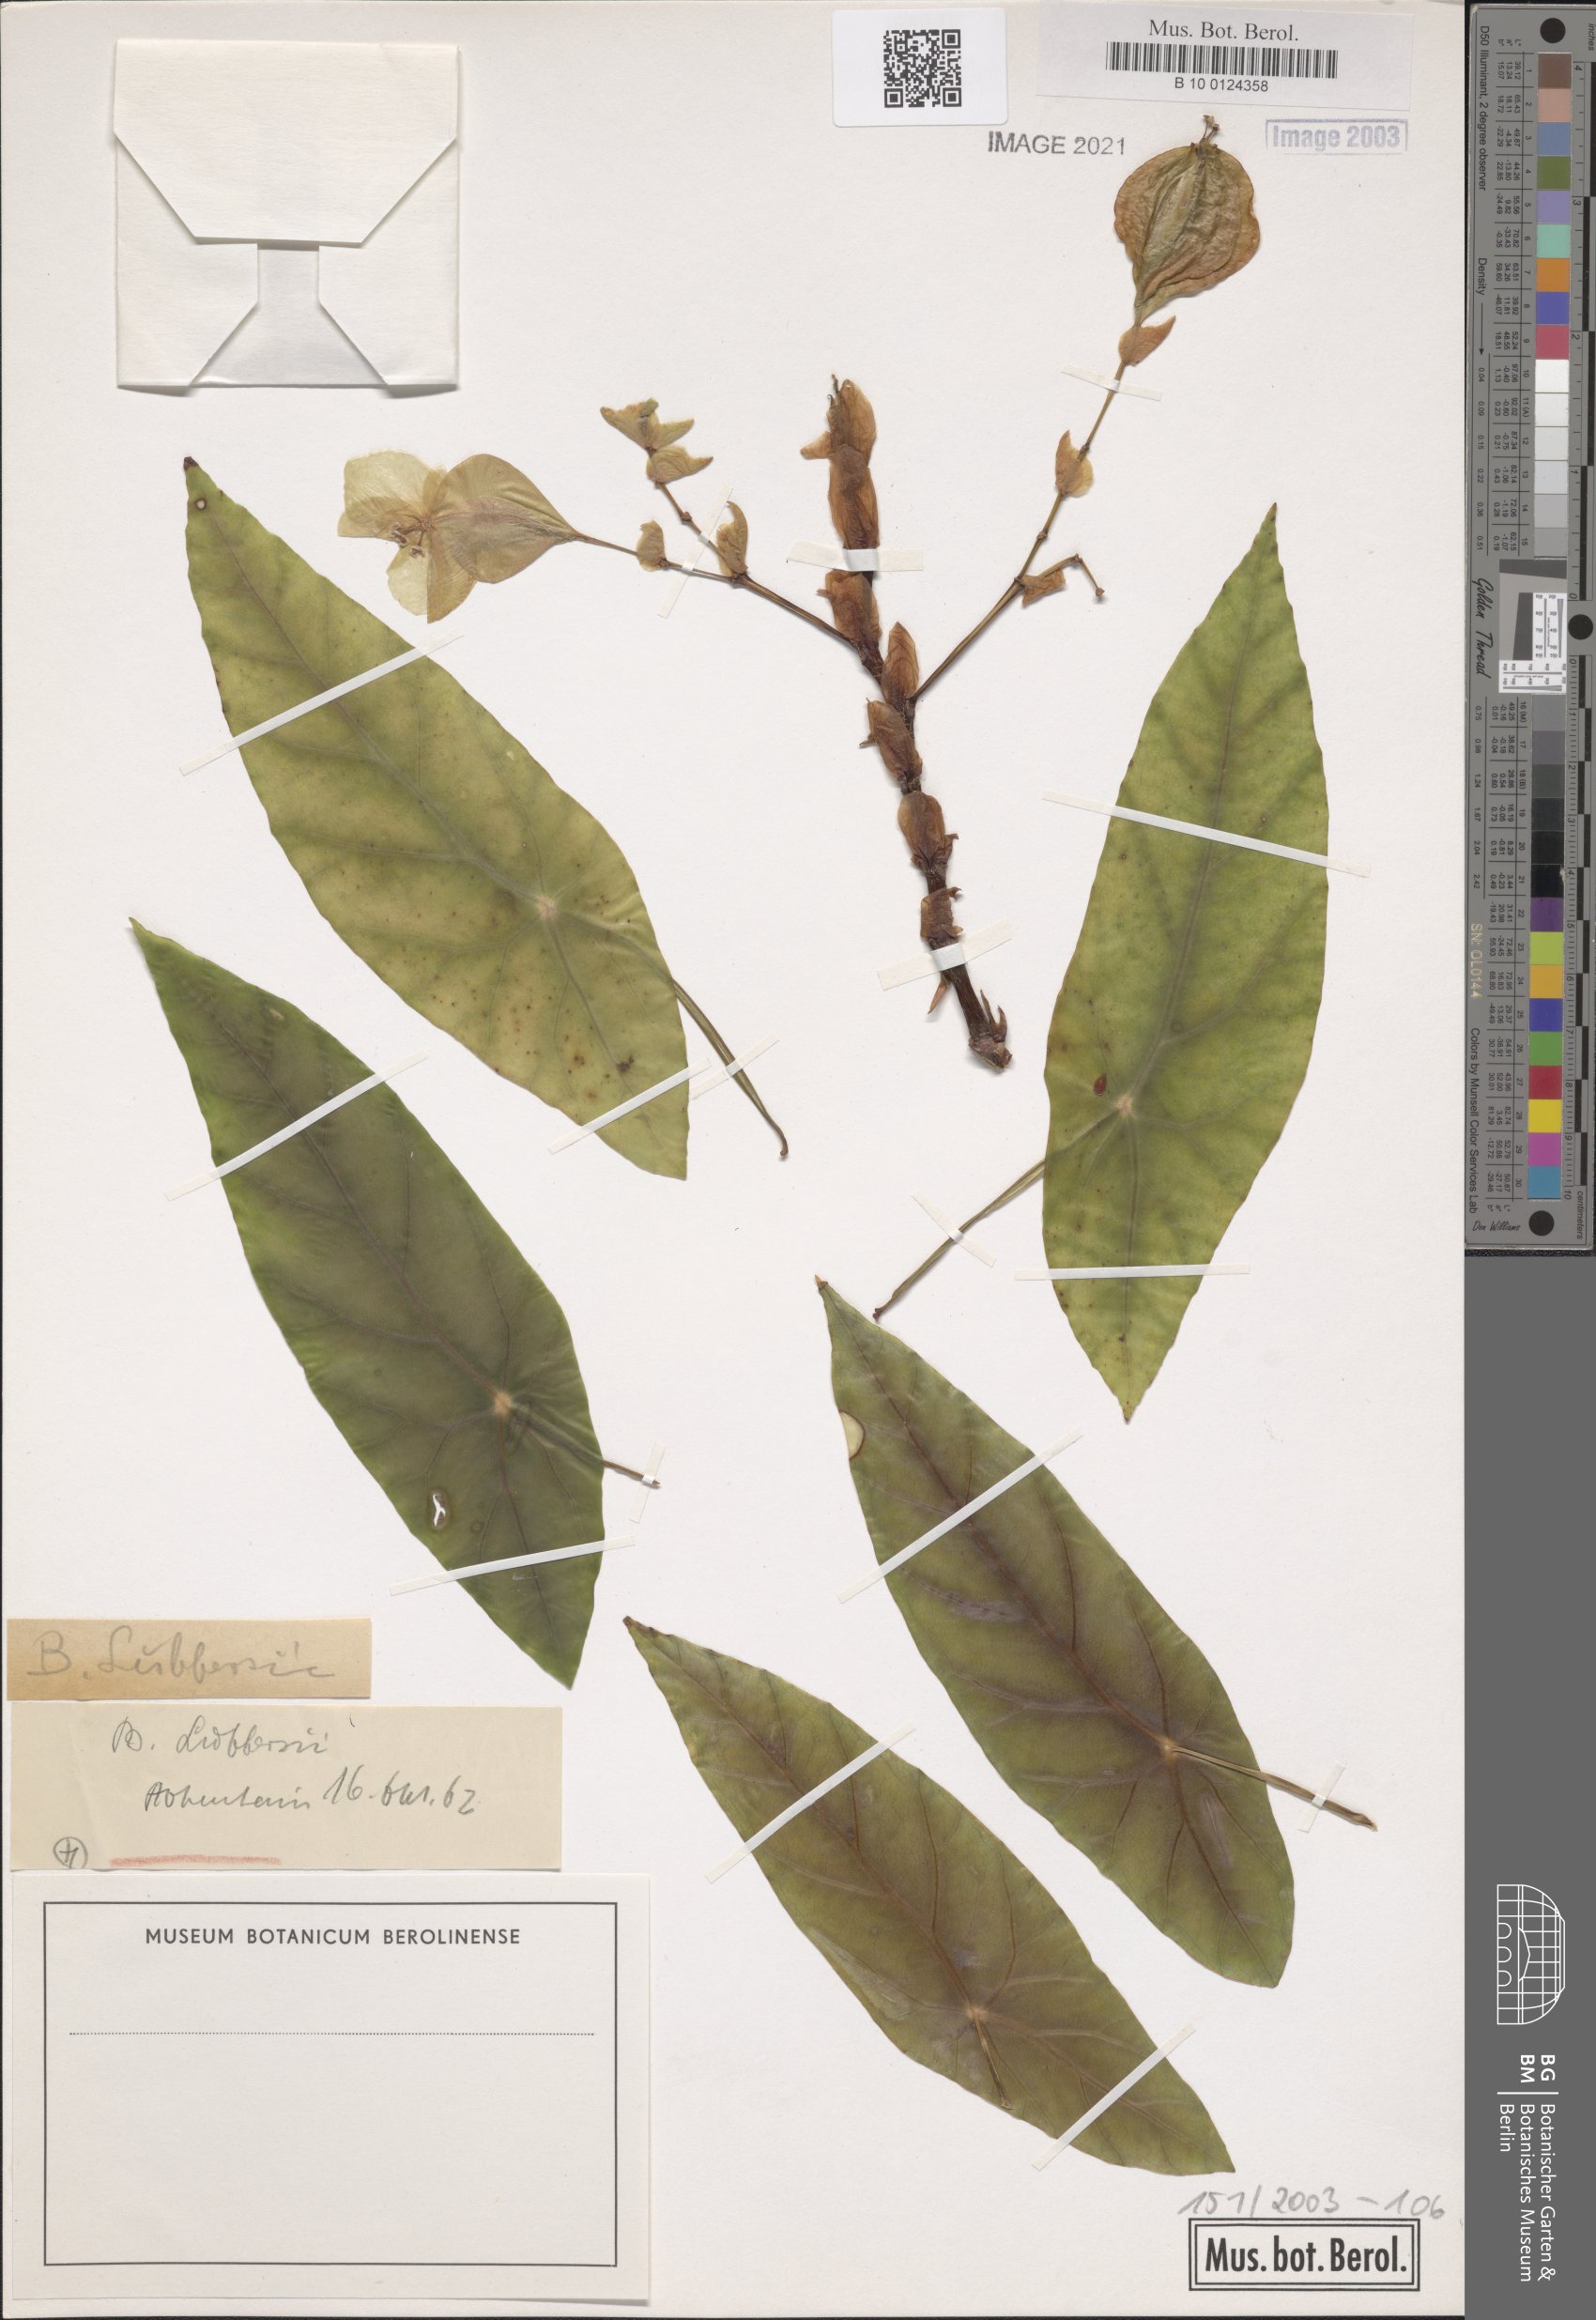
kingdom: Plantae
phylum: Tracheophyta
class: Magnoliopsida
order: Cucurbitales
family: Begoniaceae
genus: Begonia
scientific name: Begonia lubbersii
